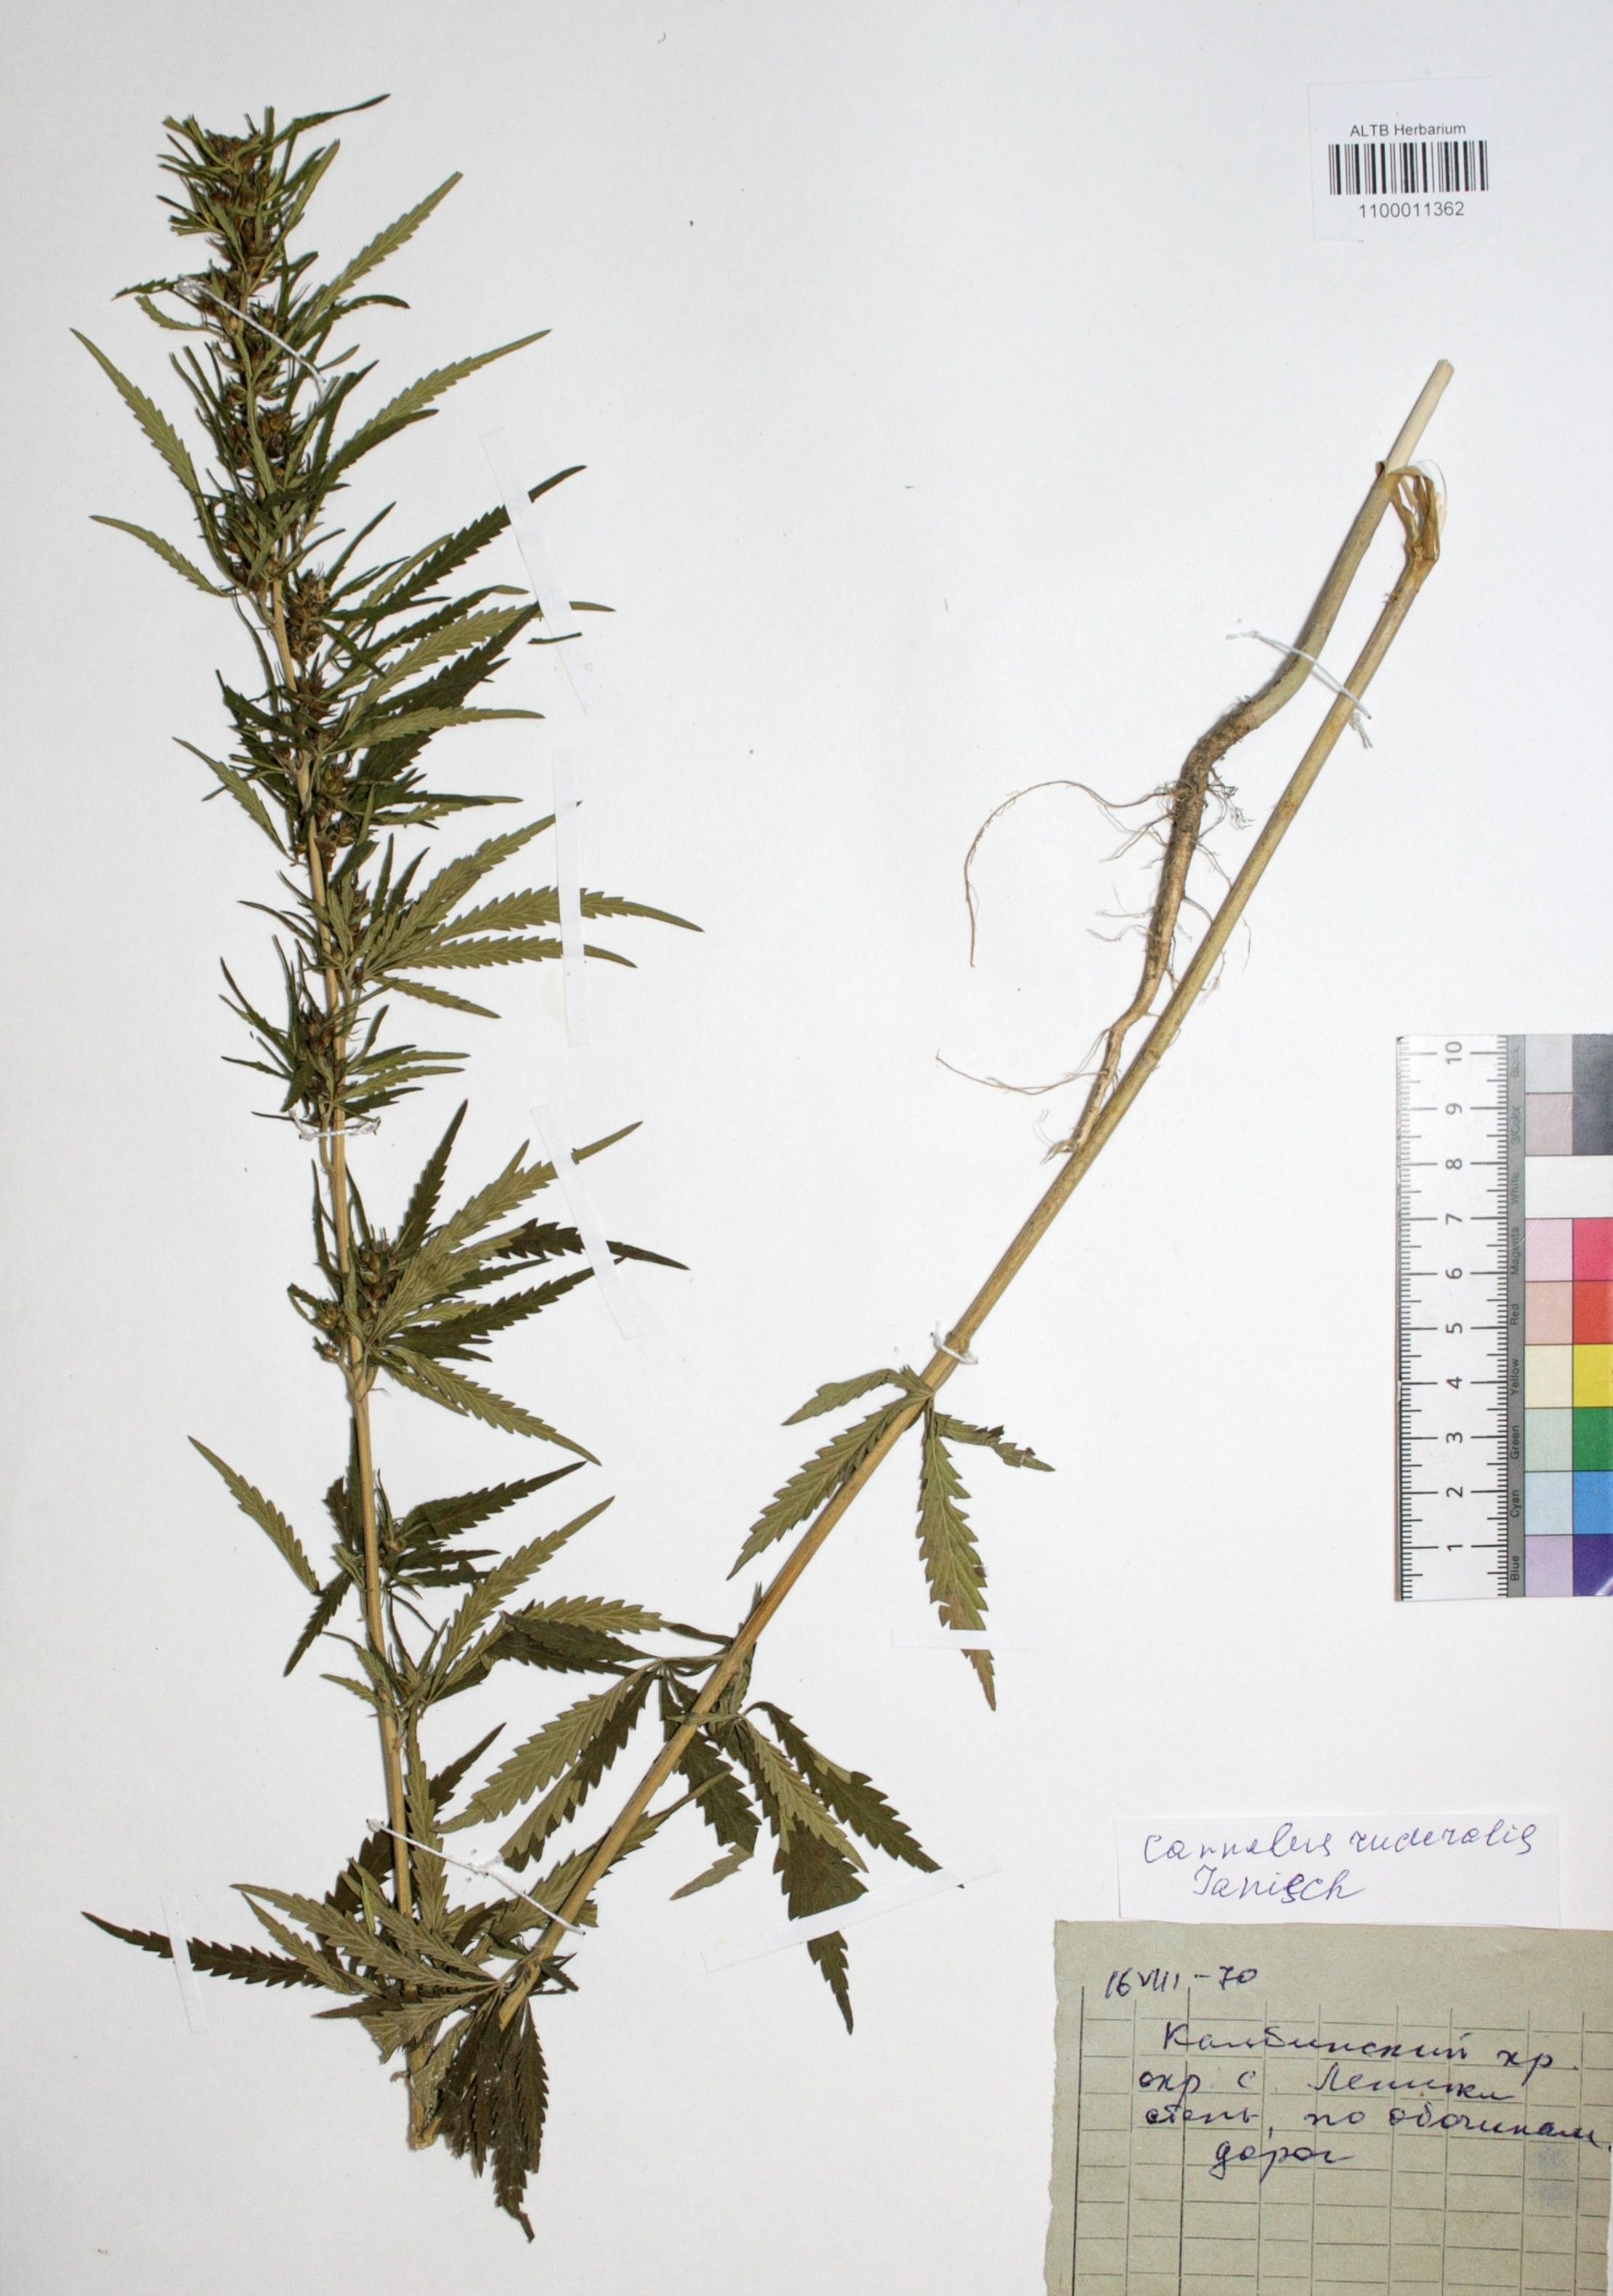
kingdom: Plantae
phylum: Tracheophyta
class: Magnoliopsida
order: Rosales
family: Cannabaceae
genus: Cannabis
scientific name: Cannabis sativa
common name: Hemp
